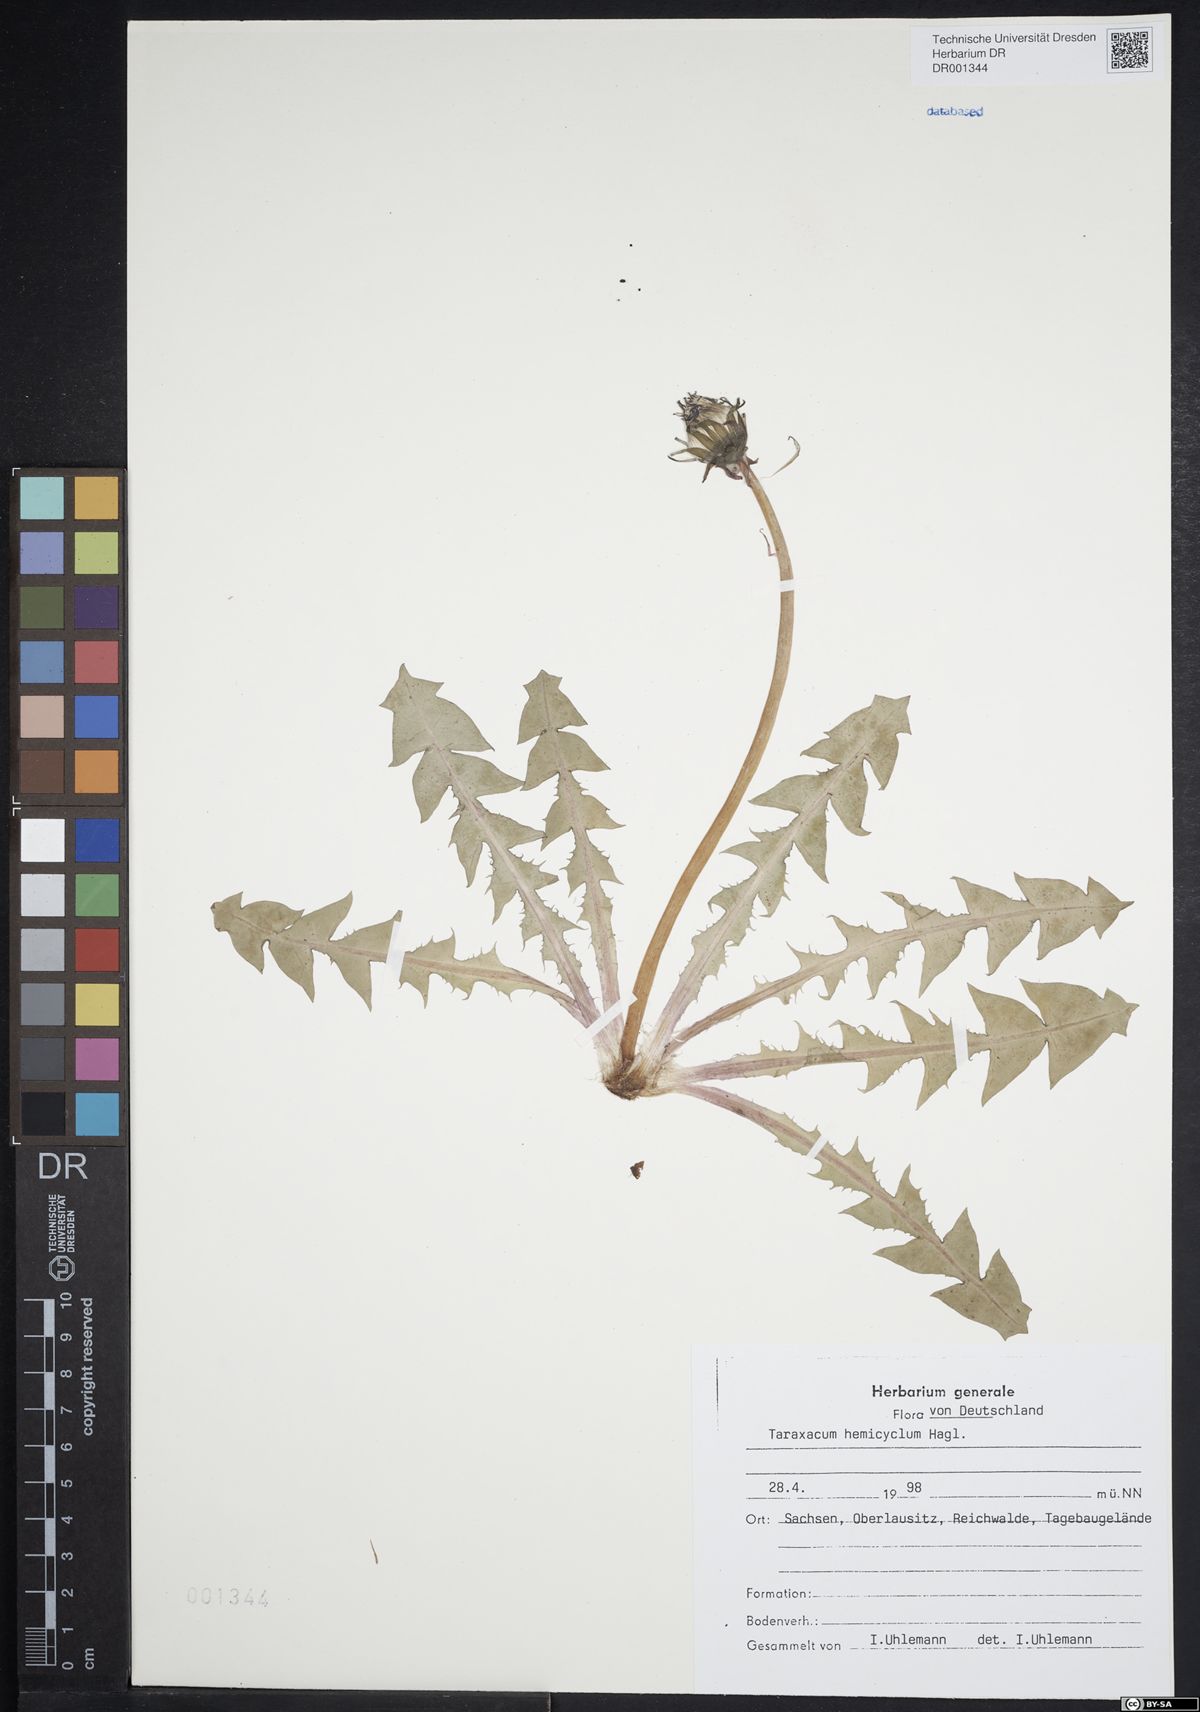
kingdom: Plantae
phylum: Tracheophyta
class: Magnoliopsida
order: Asterales
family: Asteraceae
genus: Taraxacum
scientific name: Taraxacum adiantifrons
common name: Pretty-leaved dandelion
